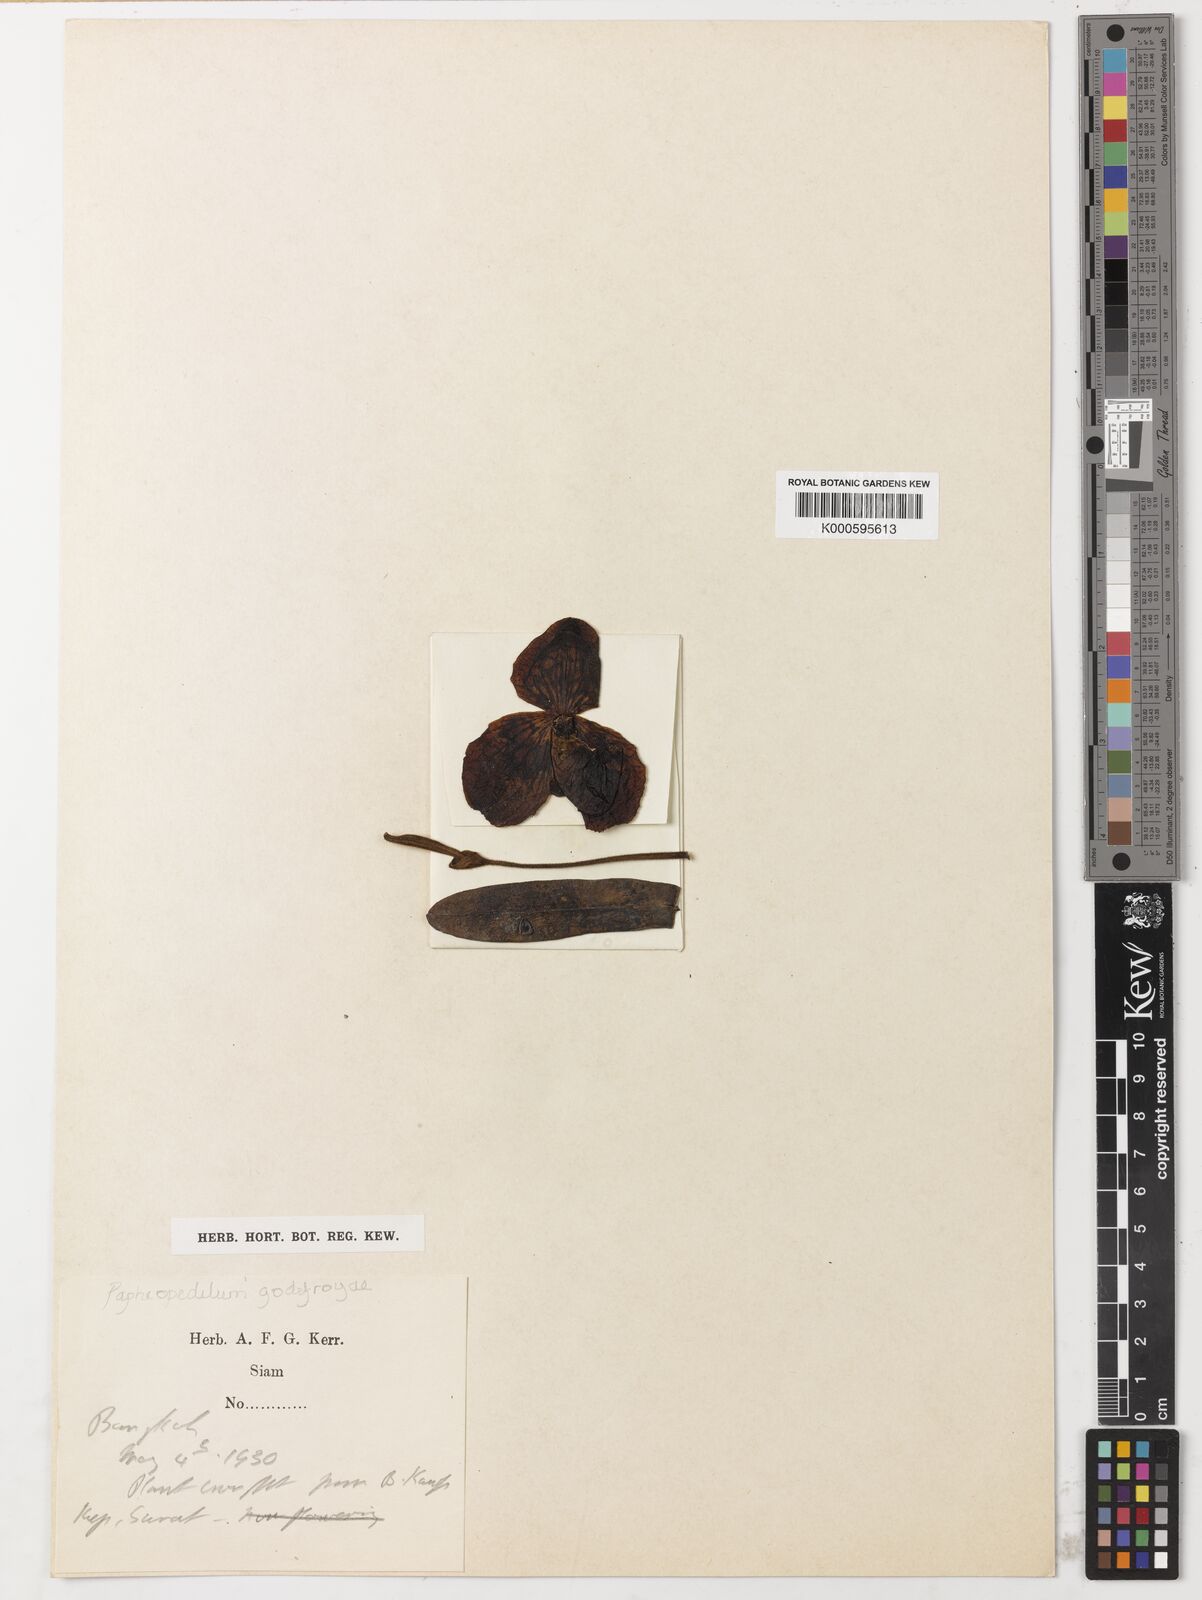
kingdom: Plantae
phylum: Tracheophyta
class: Liliopsida
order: Asparagales
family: Orchidaceae
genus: Paphiopedilum
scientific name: Paphiopedilum godefroyae
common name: Godefroy's paphiopedilum
